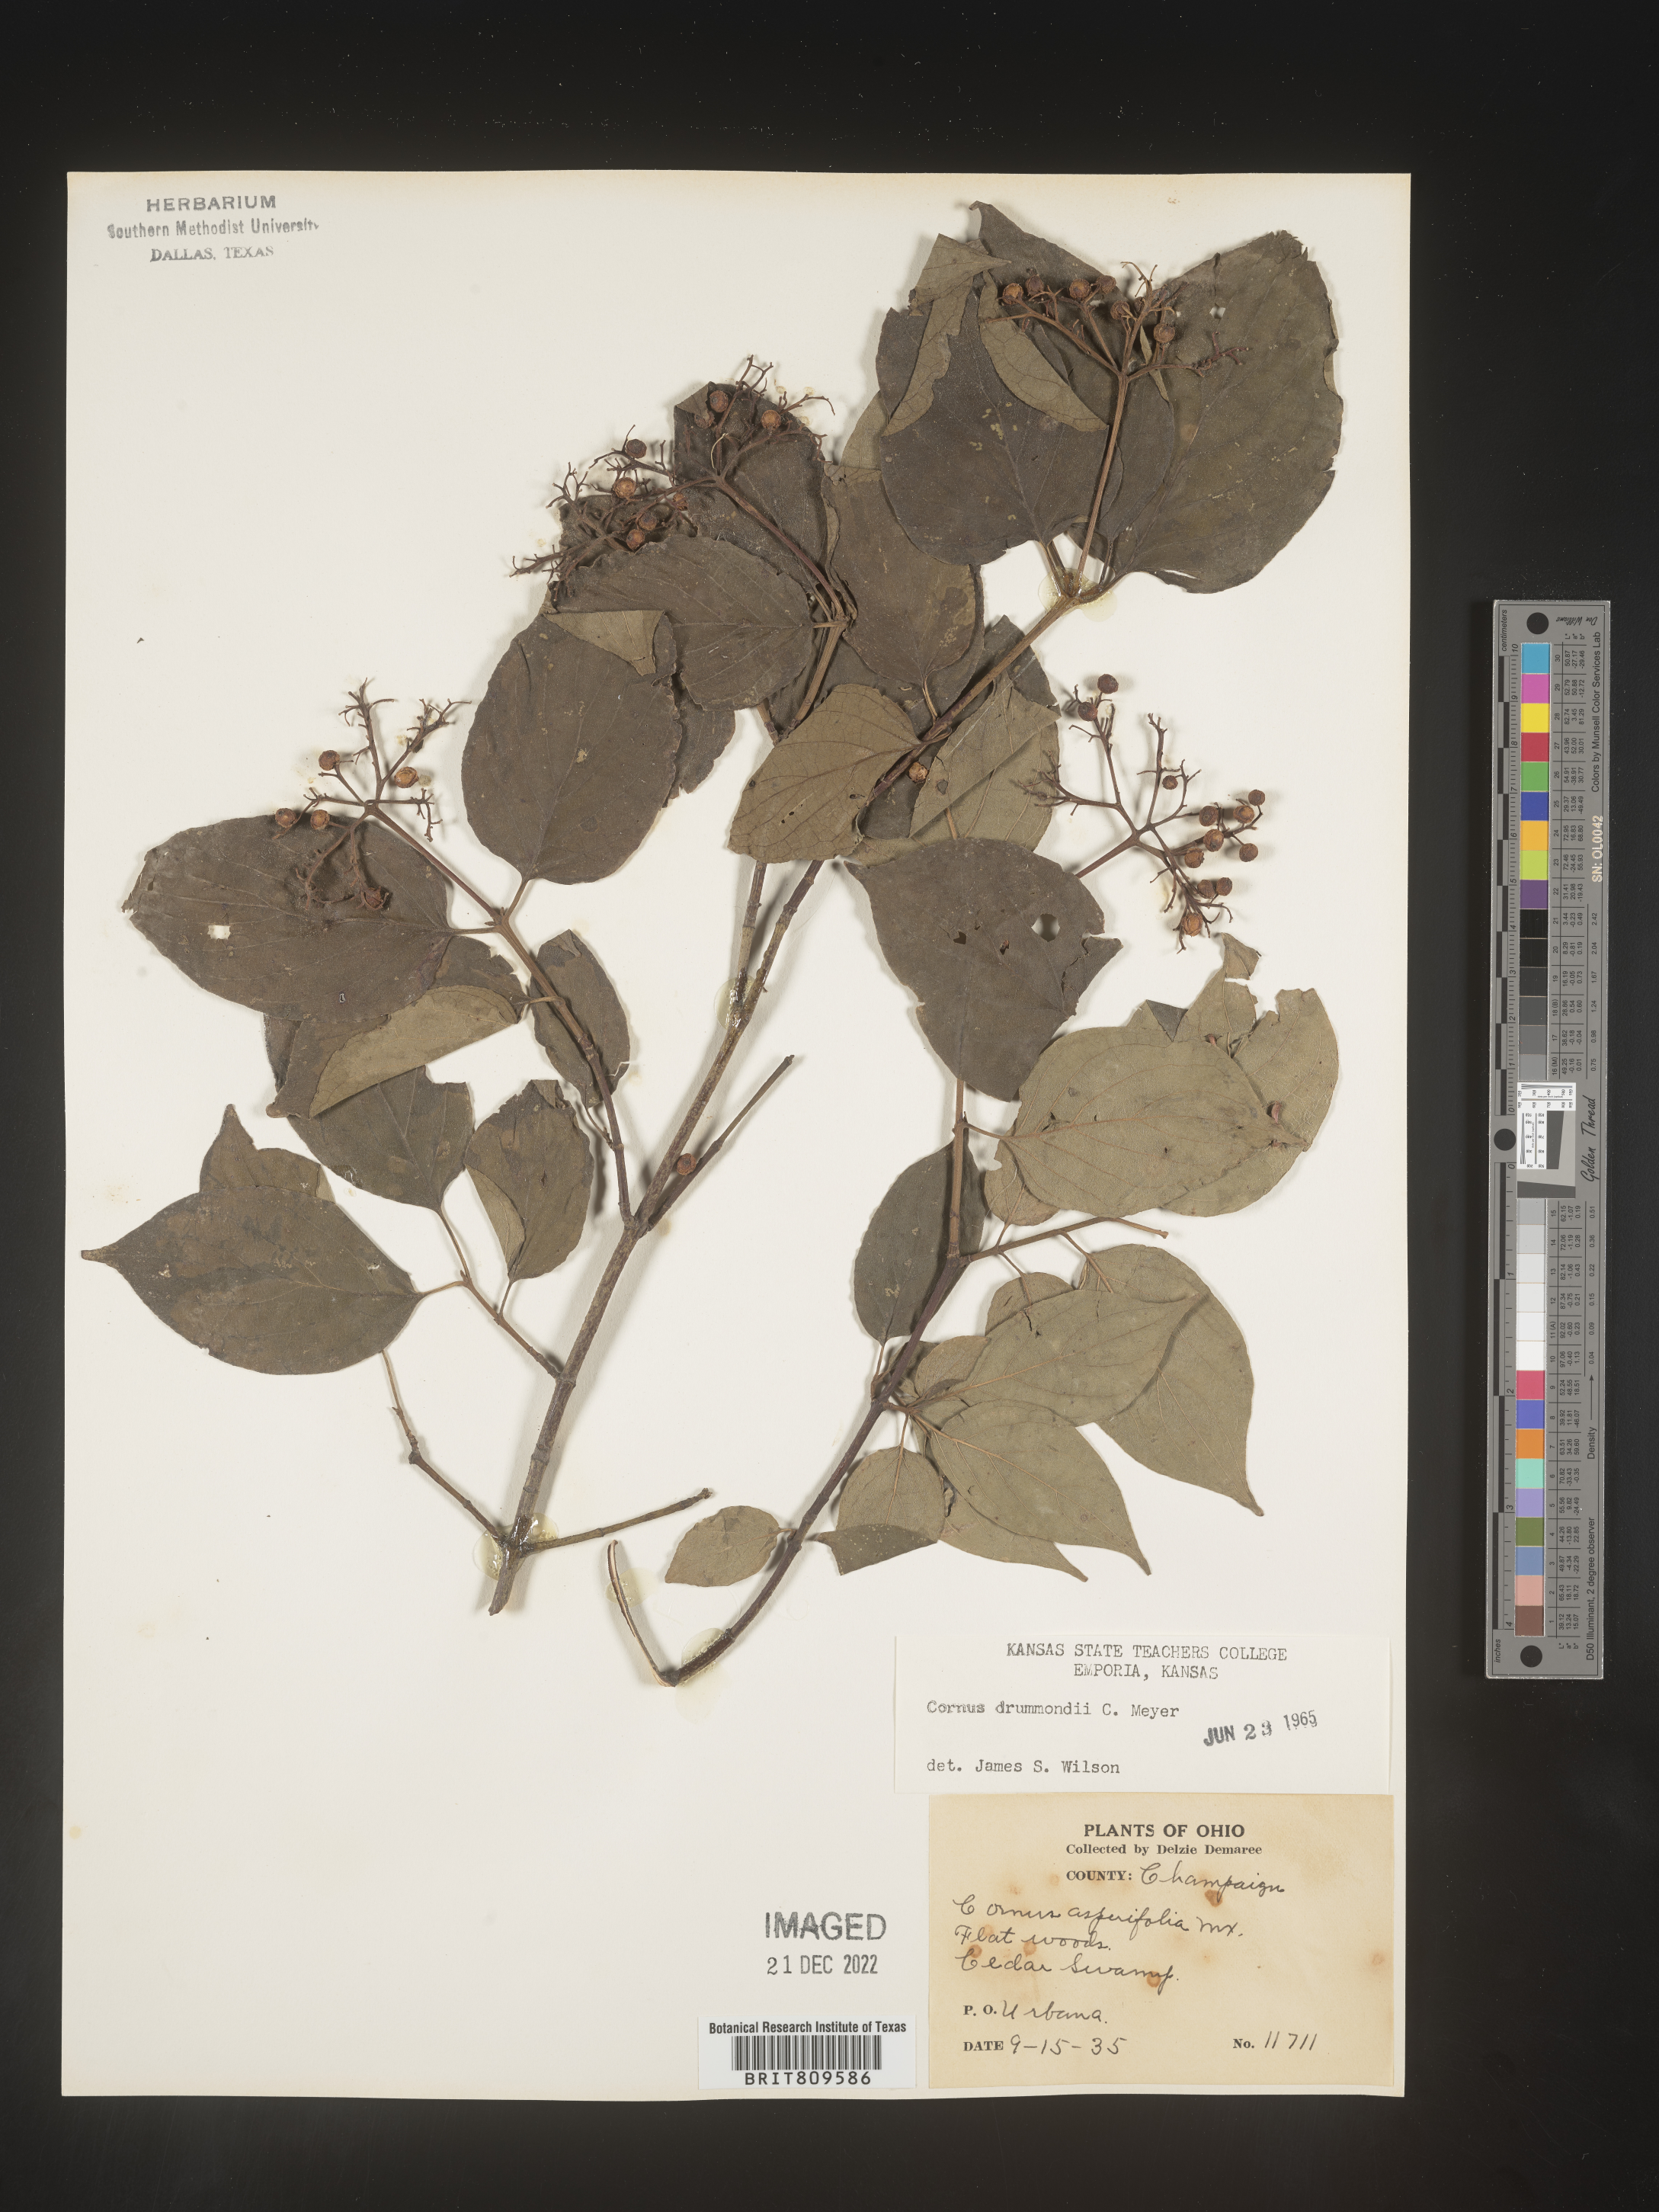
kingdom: Plantae
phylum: Tracheophyta
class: Magnoliopsida
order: Cornales
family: Cornaceae
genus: Cornus
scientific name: Cornus drummondii
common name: Rough-leaf dogwood
